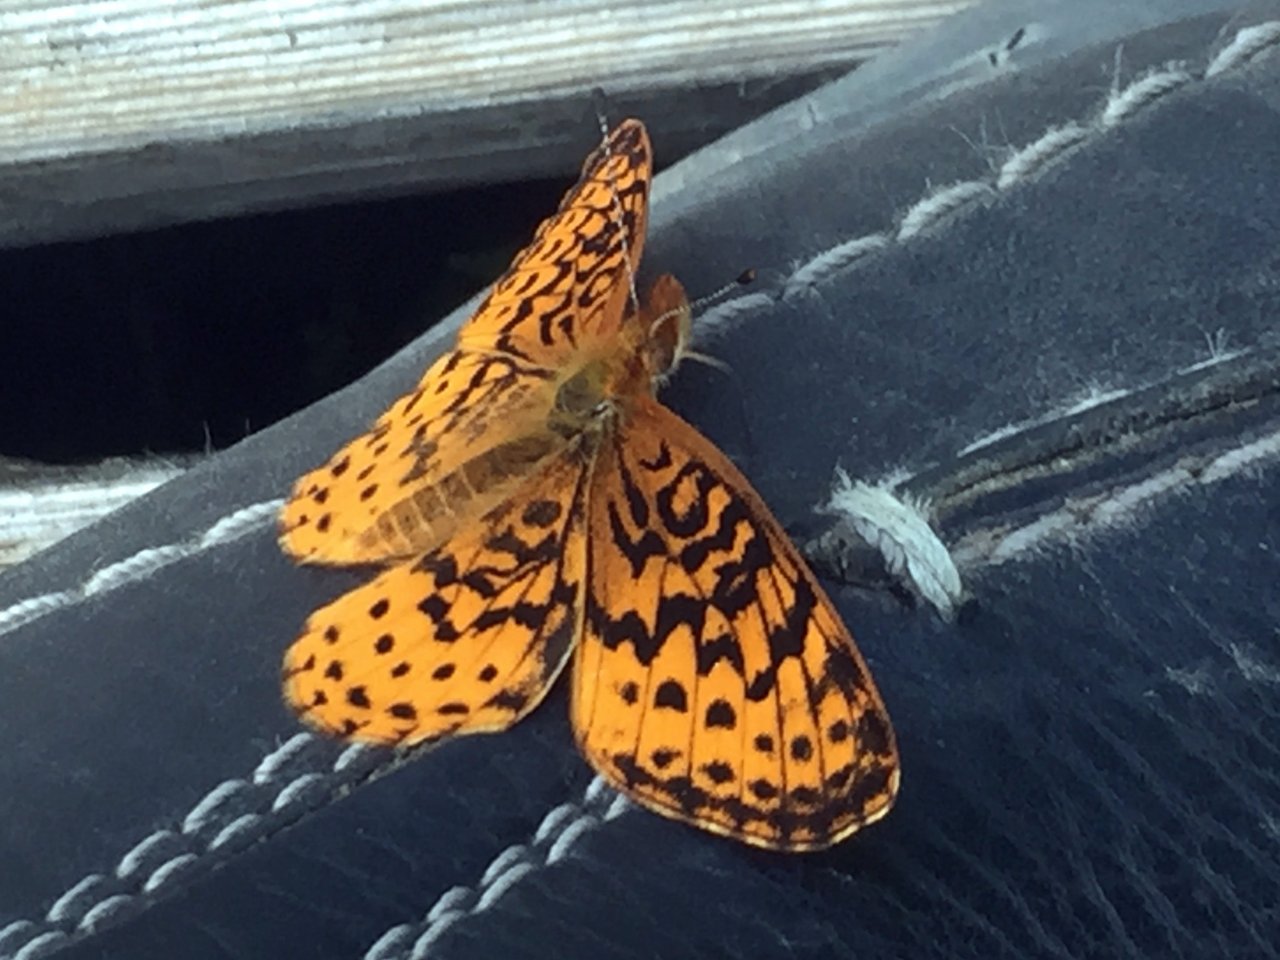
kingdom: Animalia
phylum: Arthropoda
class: Insecta
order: Lepidoptera
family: Nymphalidae
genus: Clossiana
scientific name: Clossiana toddi
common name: Meadow Fritillary
